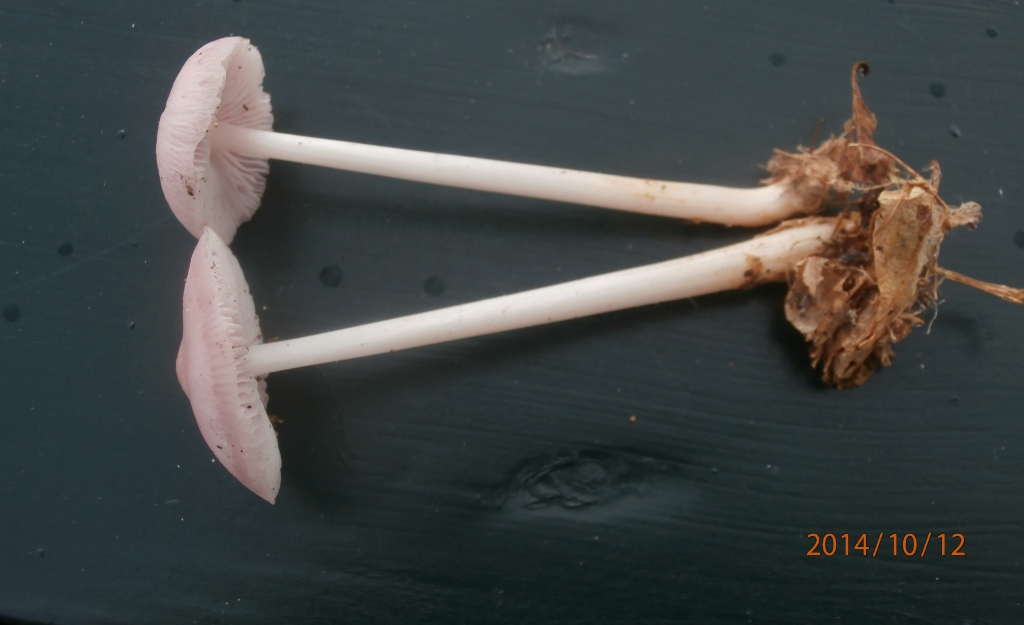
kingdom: Fungi
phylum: Basidiomycota
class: Agaricomycetes
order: Agaricales
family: Mycenaceae
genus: Mycena
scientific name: Mycena rosea
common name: rosa huesvamp
